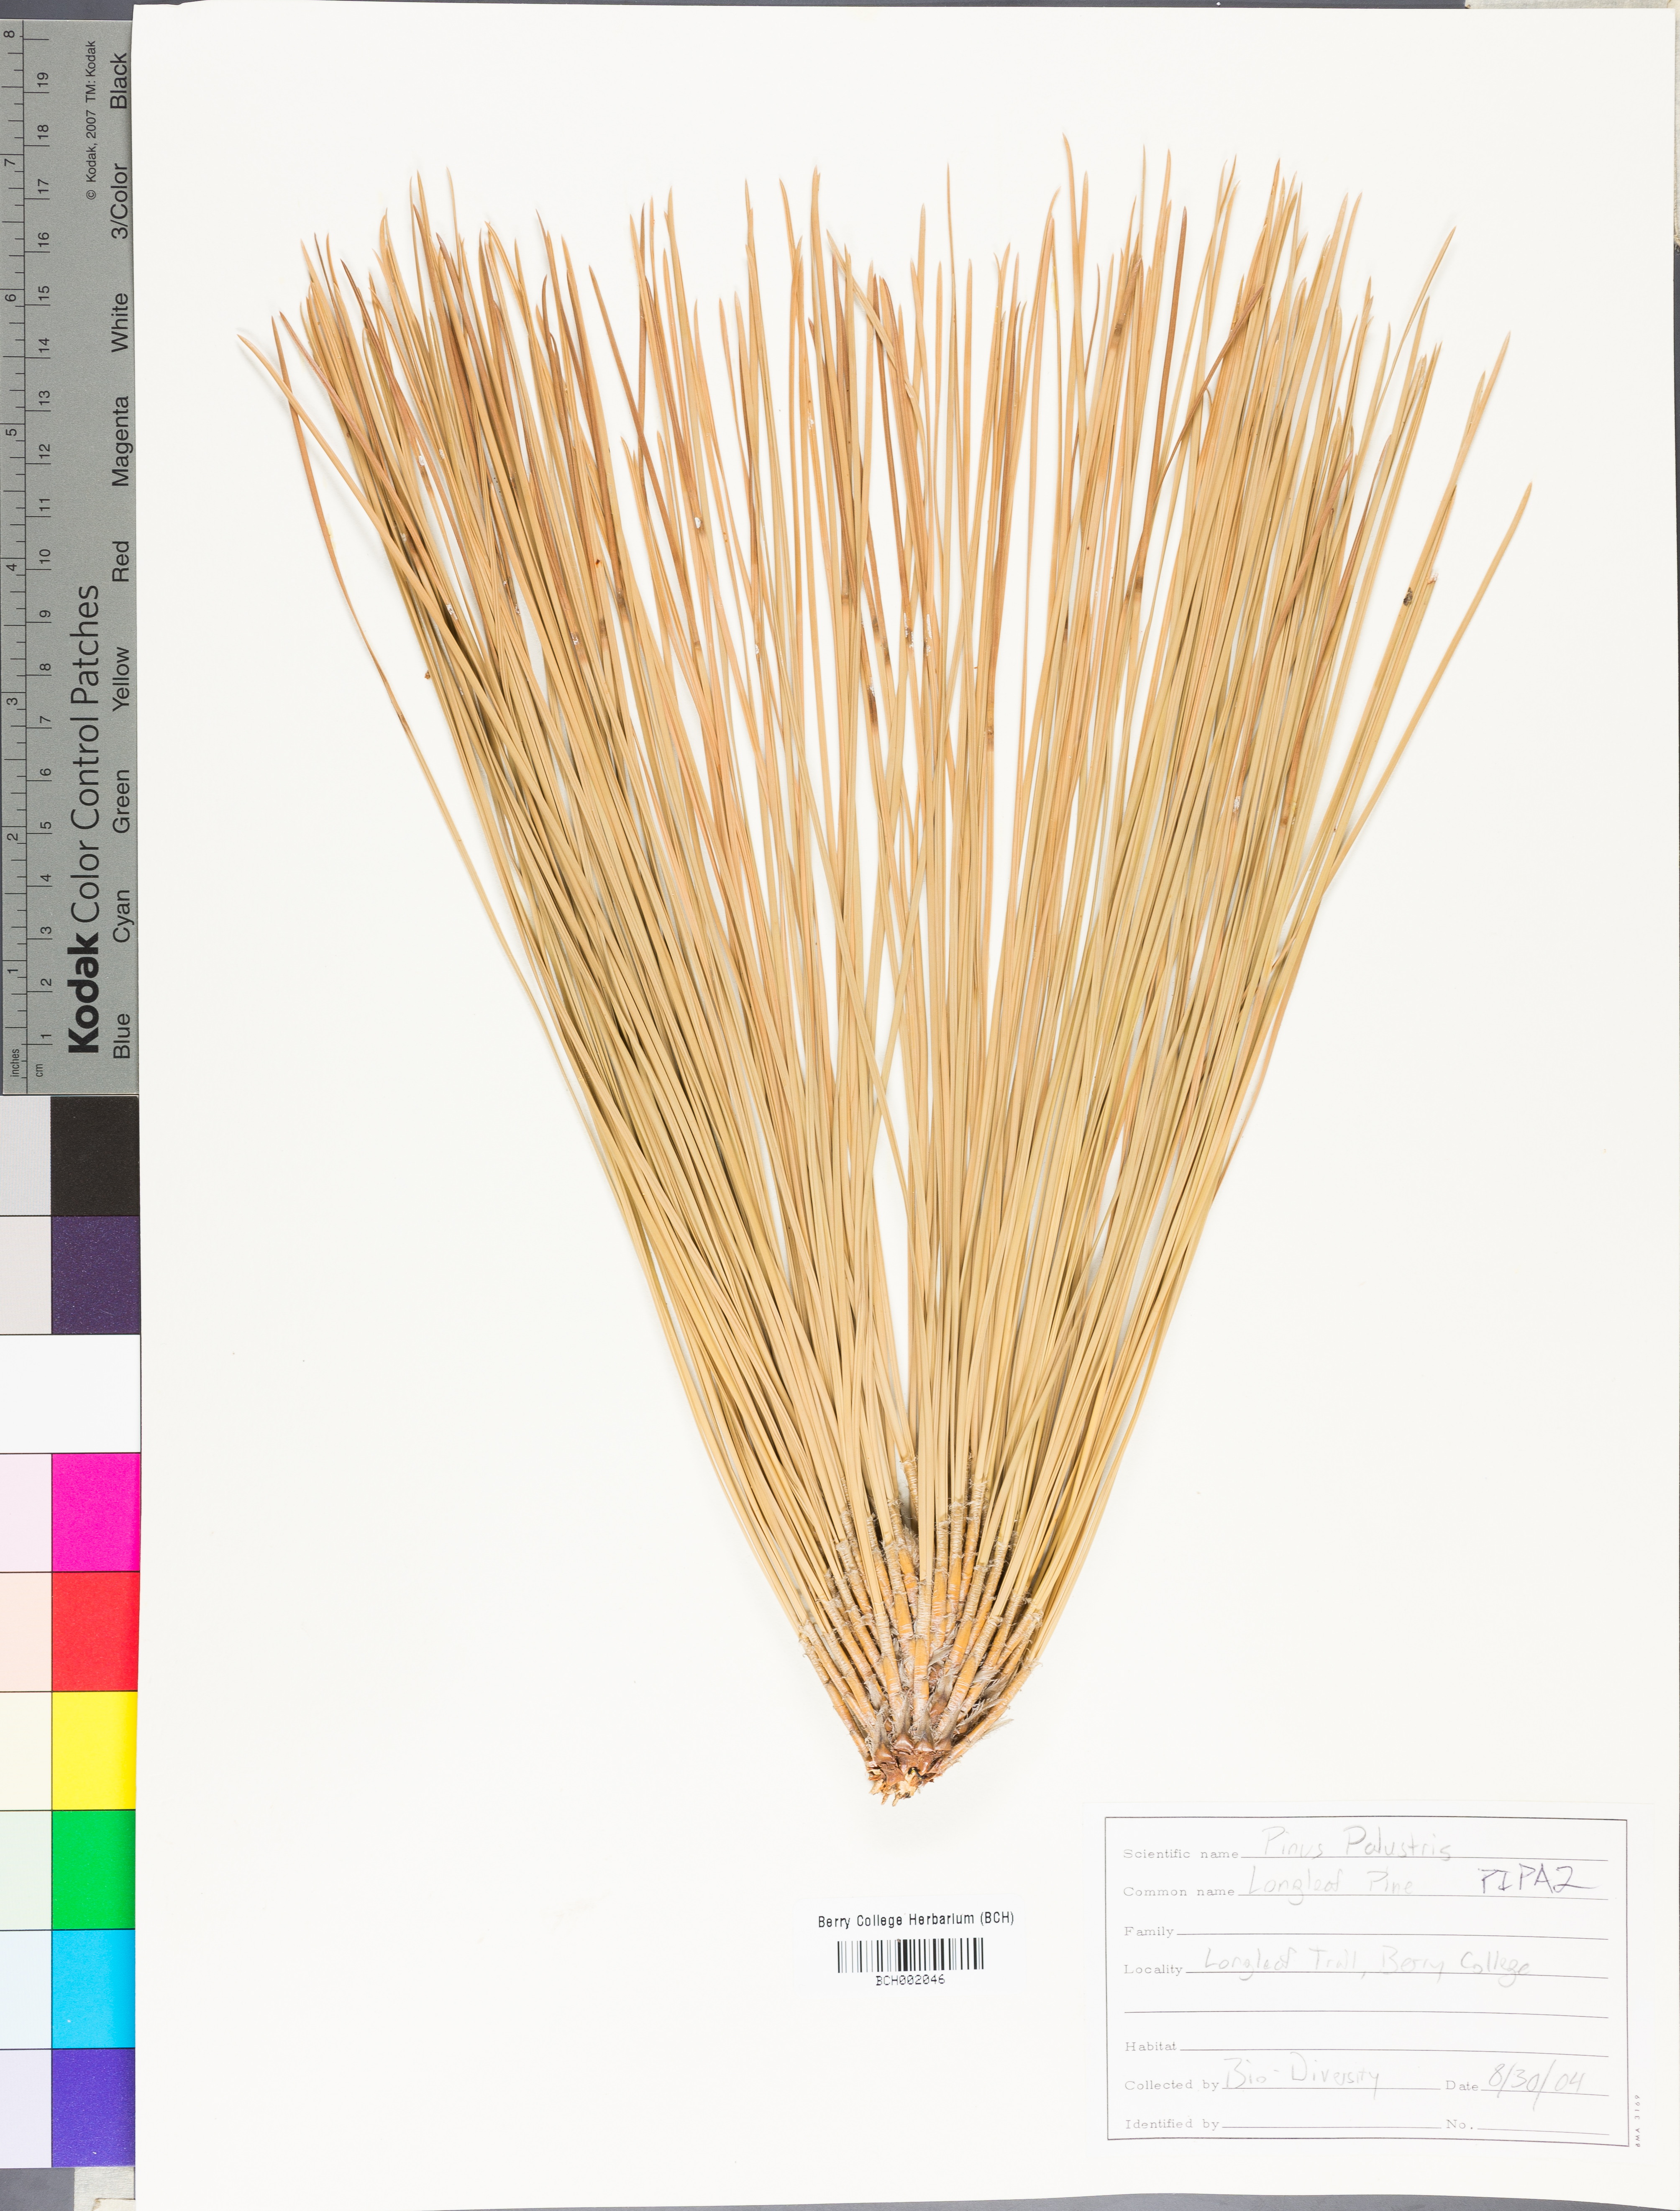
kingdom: Plantae
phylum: Tracheophyta
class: Pinopsida
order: Pinales
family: Pinaceae
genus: Pinus
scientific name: Pinus palustris
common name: Longleaf pine
